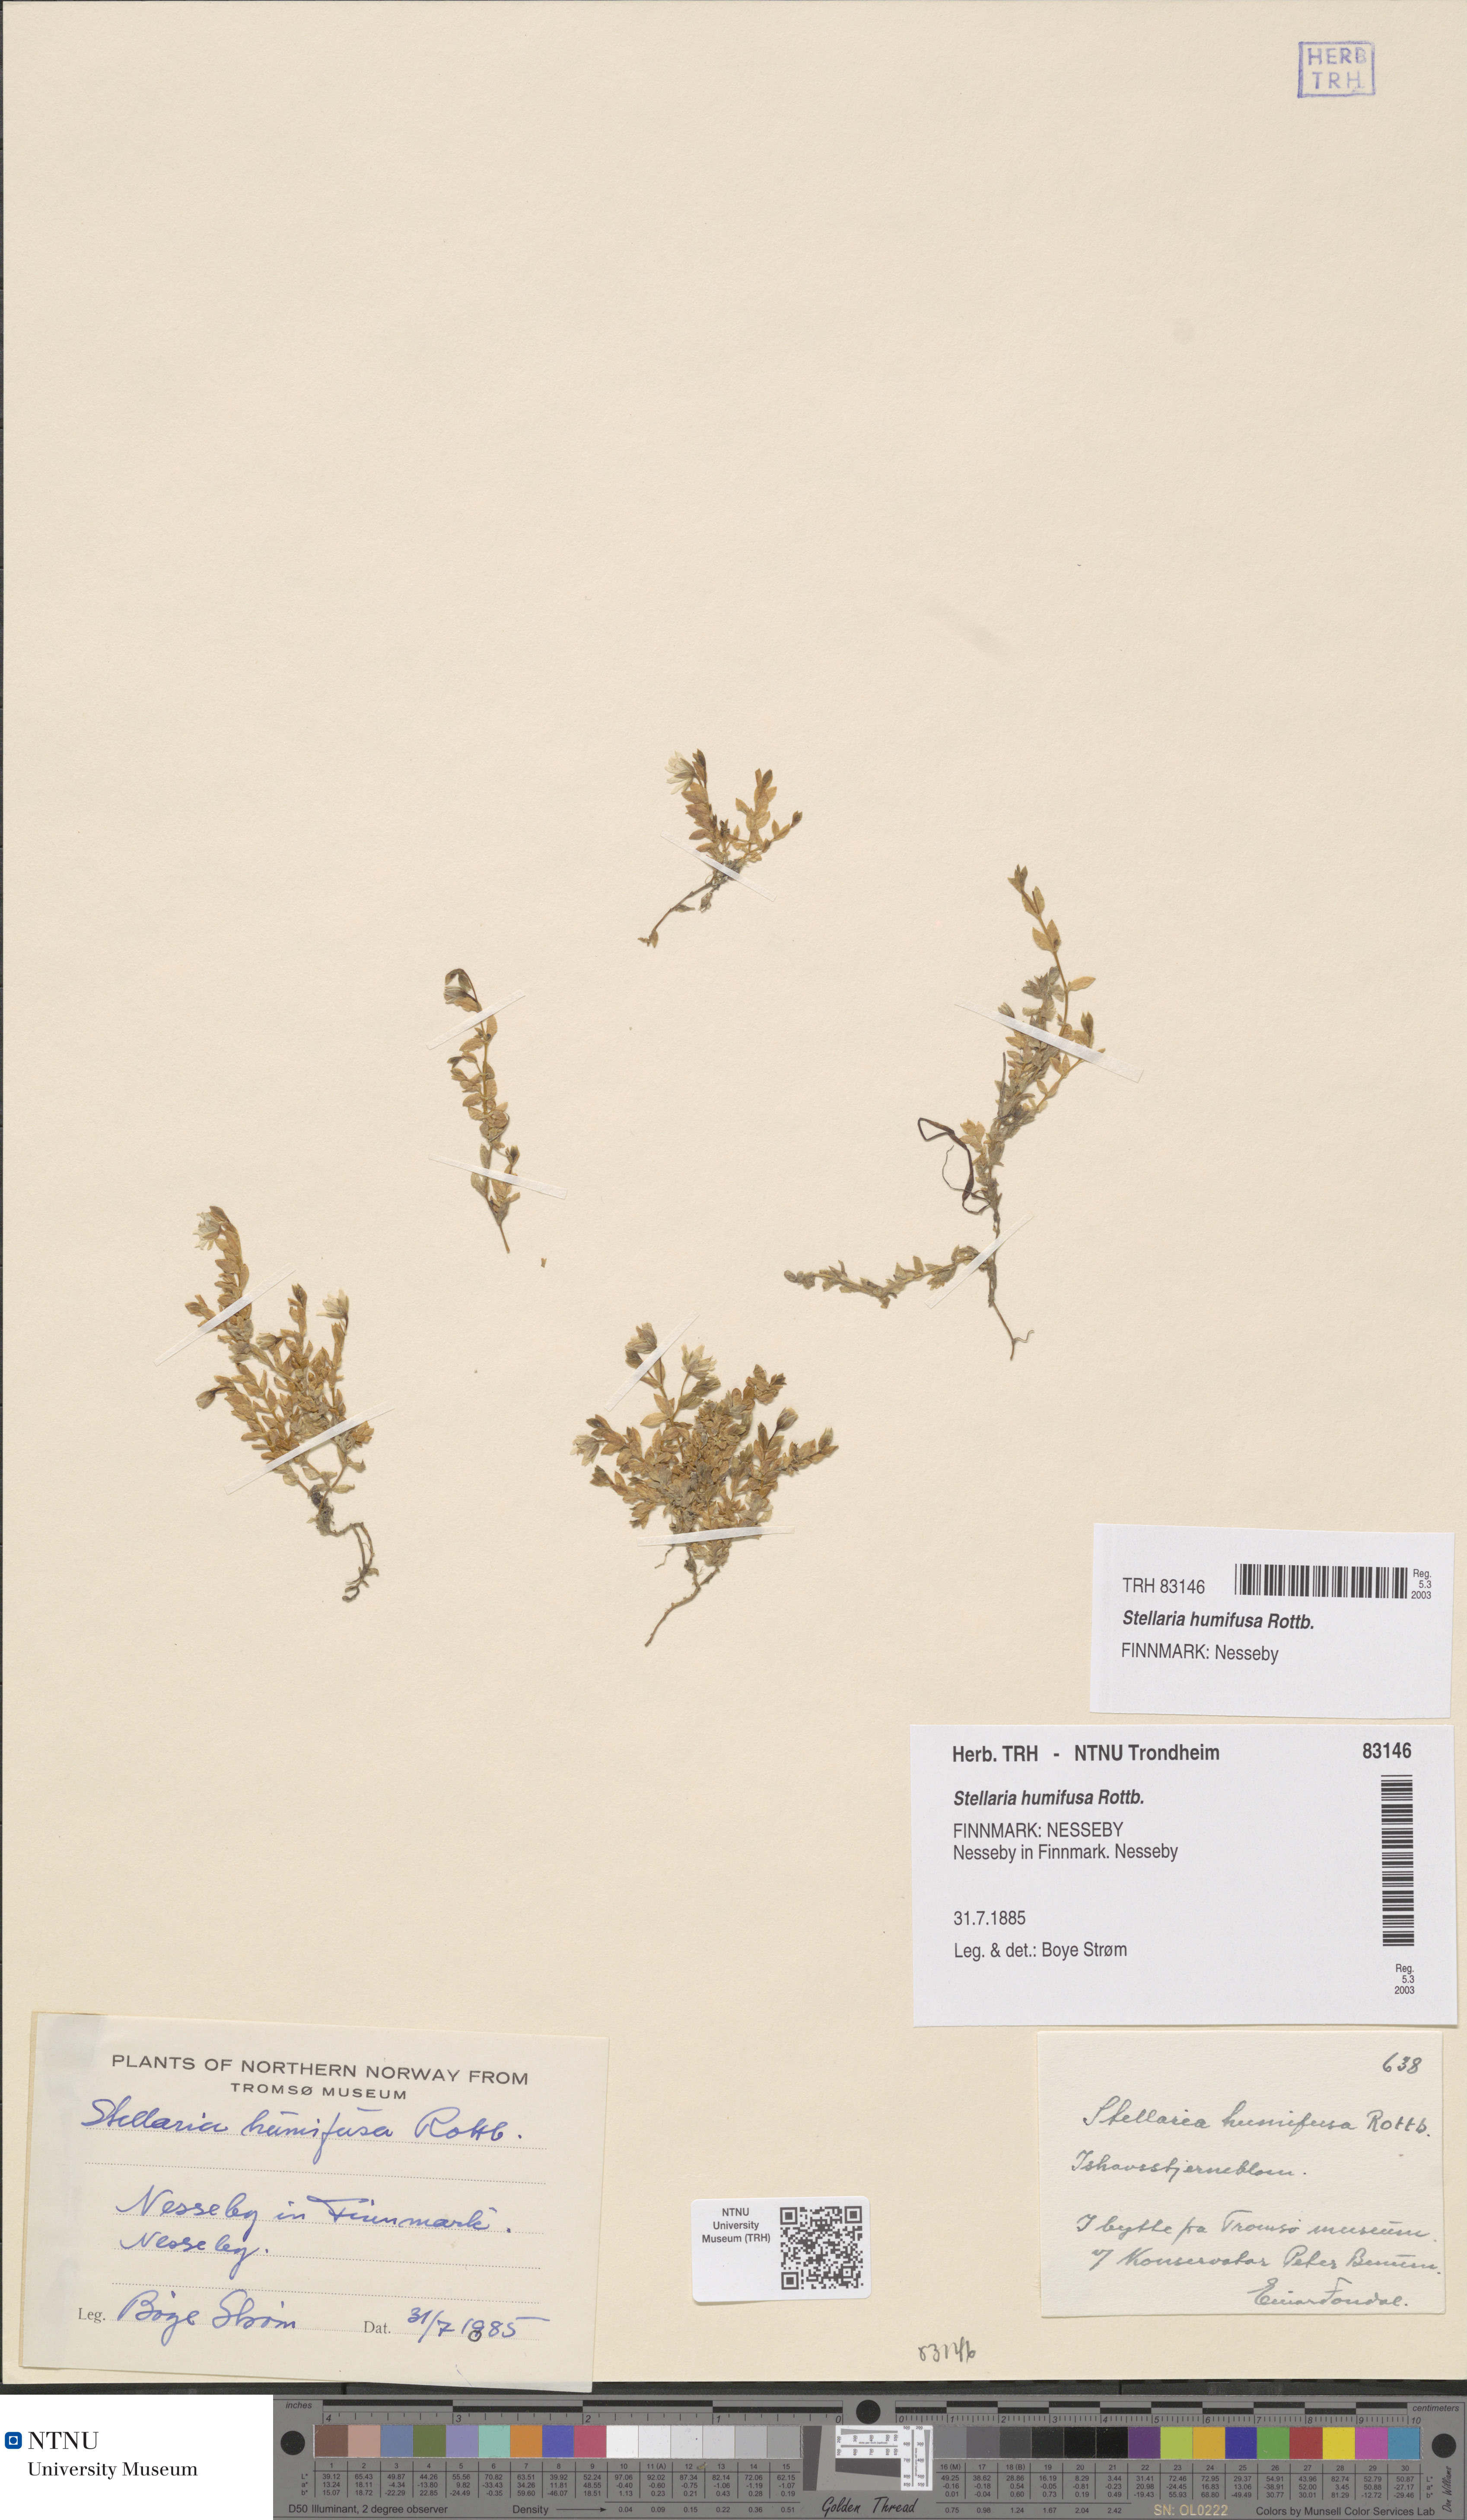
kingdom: Plantae
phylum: Tracheophyta
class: Magnoliopsida
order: Caryophyllales
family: Caryophyllaceae
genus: Stellaria
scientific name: Stellaria humifusa
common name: Creeping starwort
